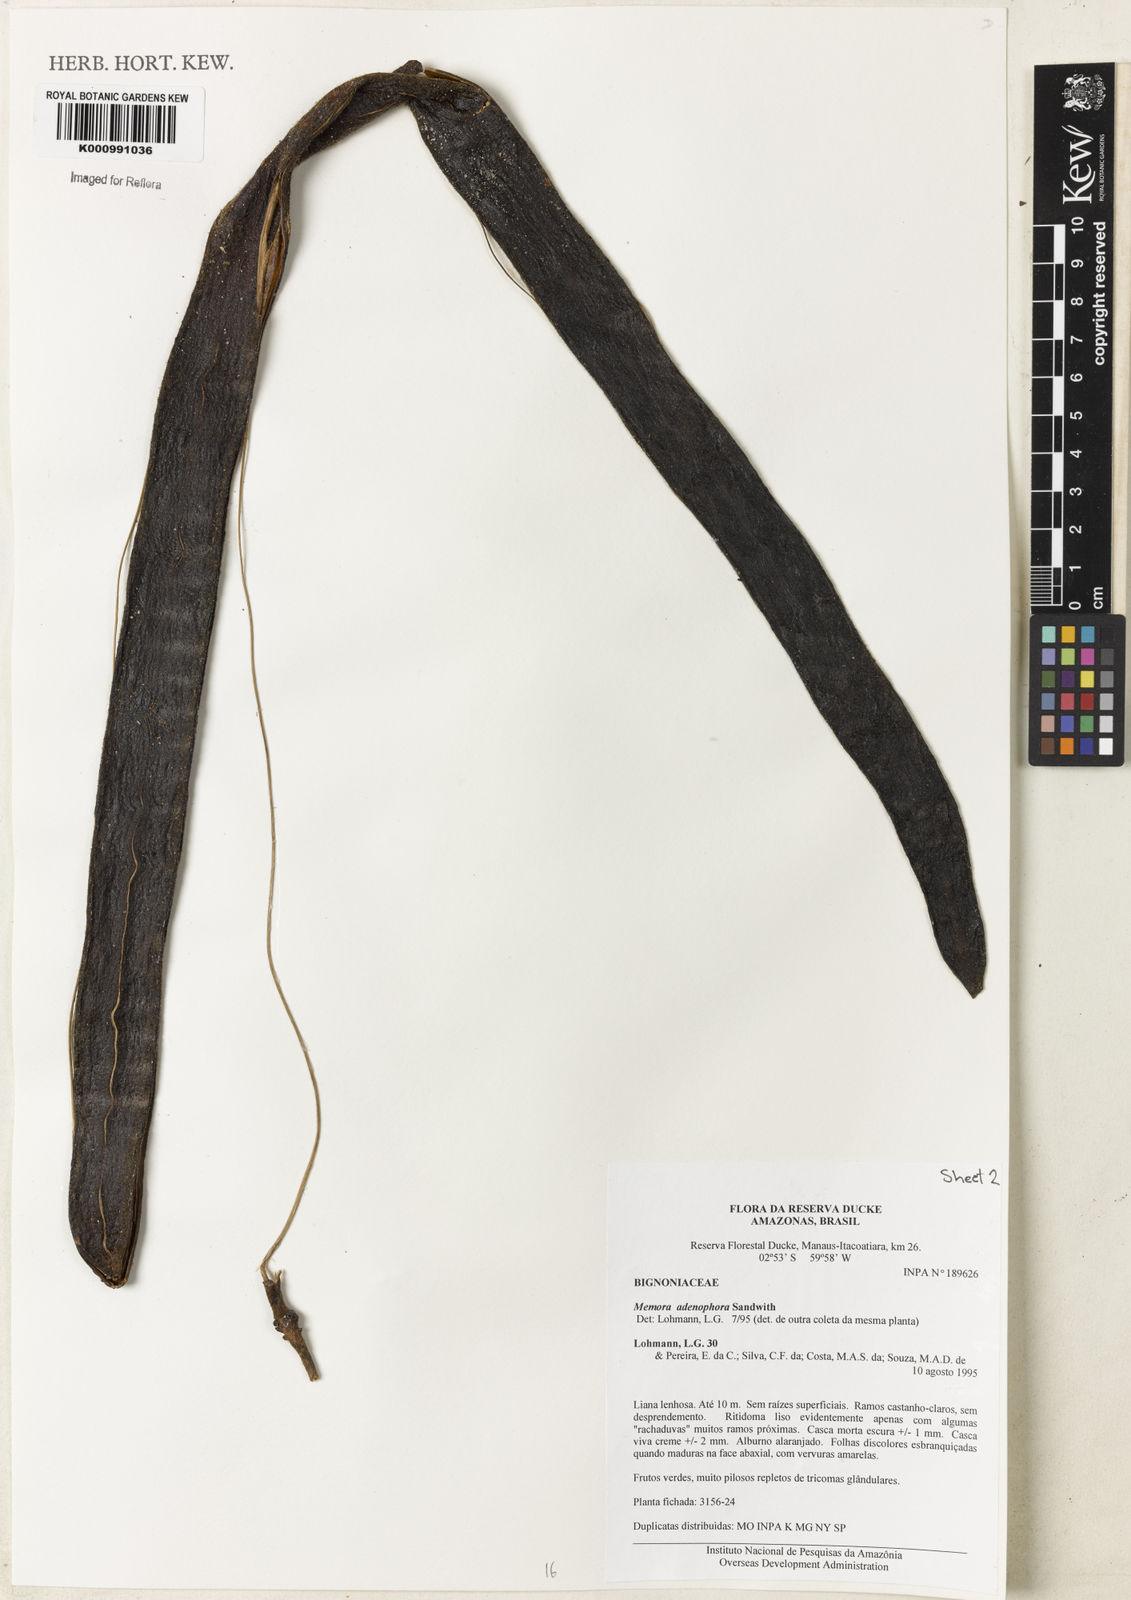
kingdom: Plantae
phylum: Tracheophyta
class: Magnoliopsida
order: Lamiales
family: Bignoniaceae
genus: Adenocalymma
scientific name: Adenocalymma adenophorum
